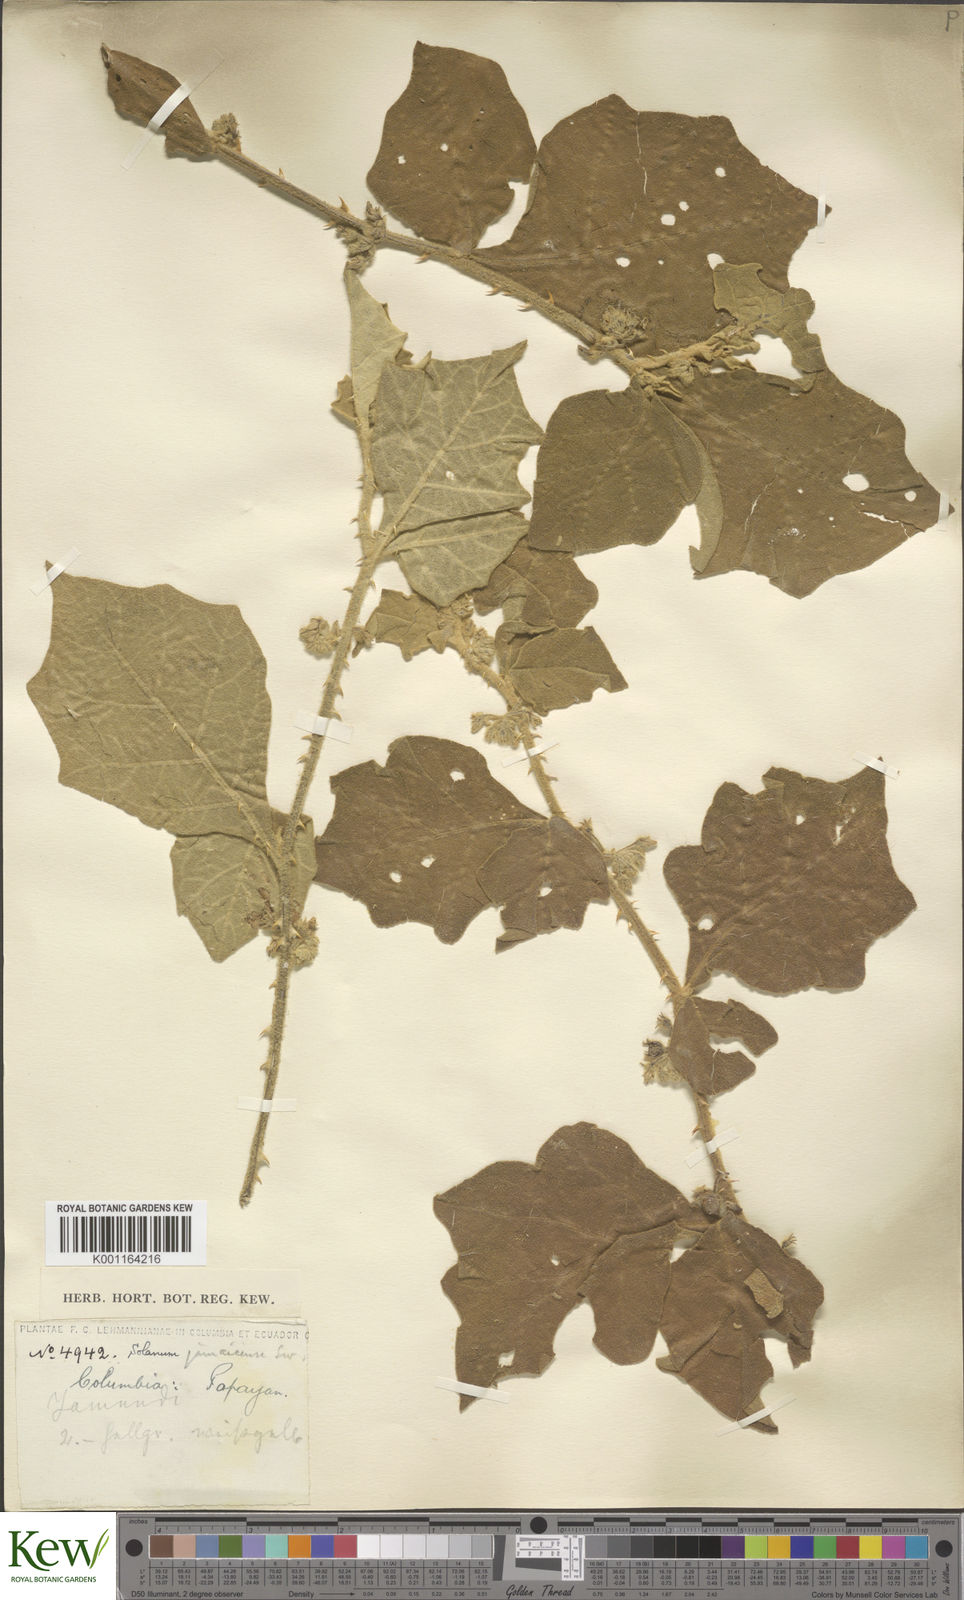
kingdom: Plantae
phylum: Tracheophyta
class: Magnoliopsida
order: Solanales
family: Solanaceae
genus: Solanum
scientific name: Solanum jamaicense
